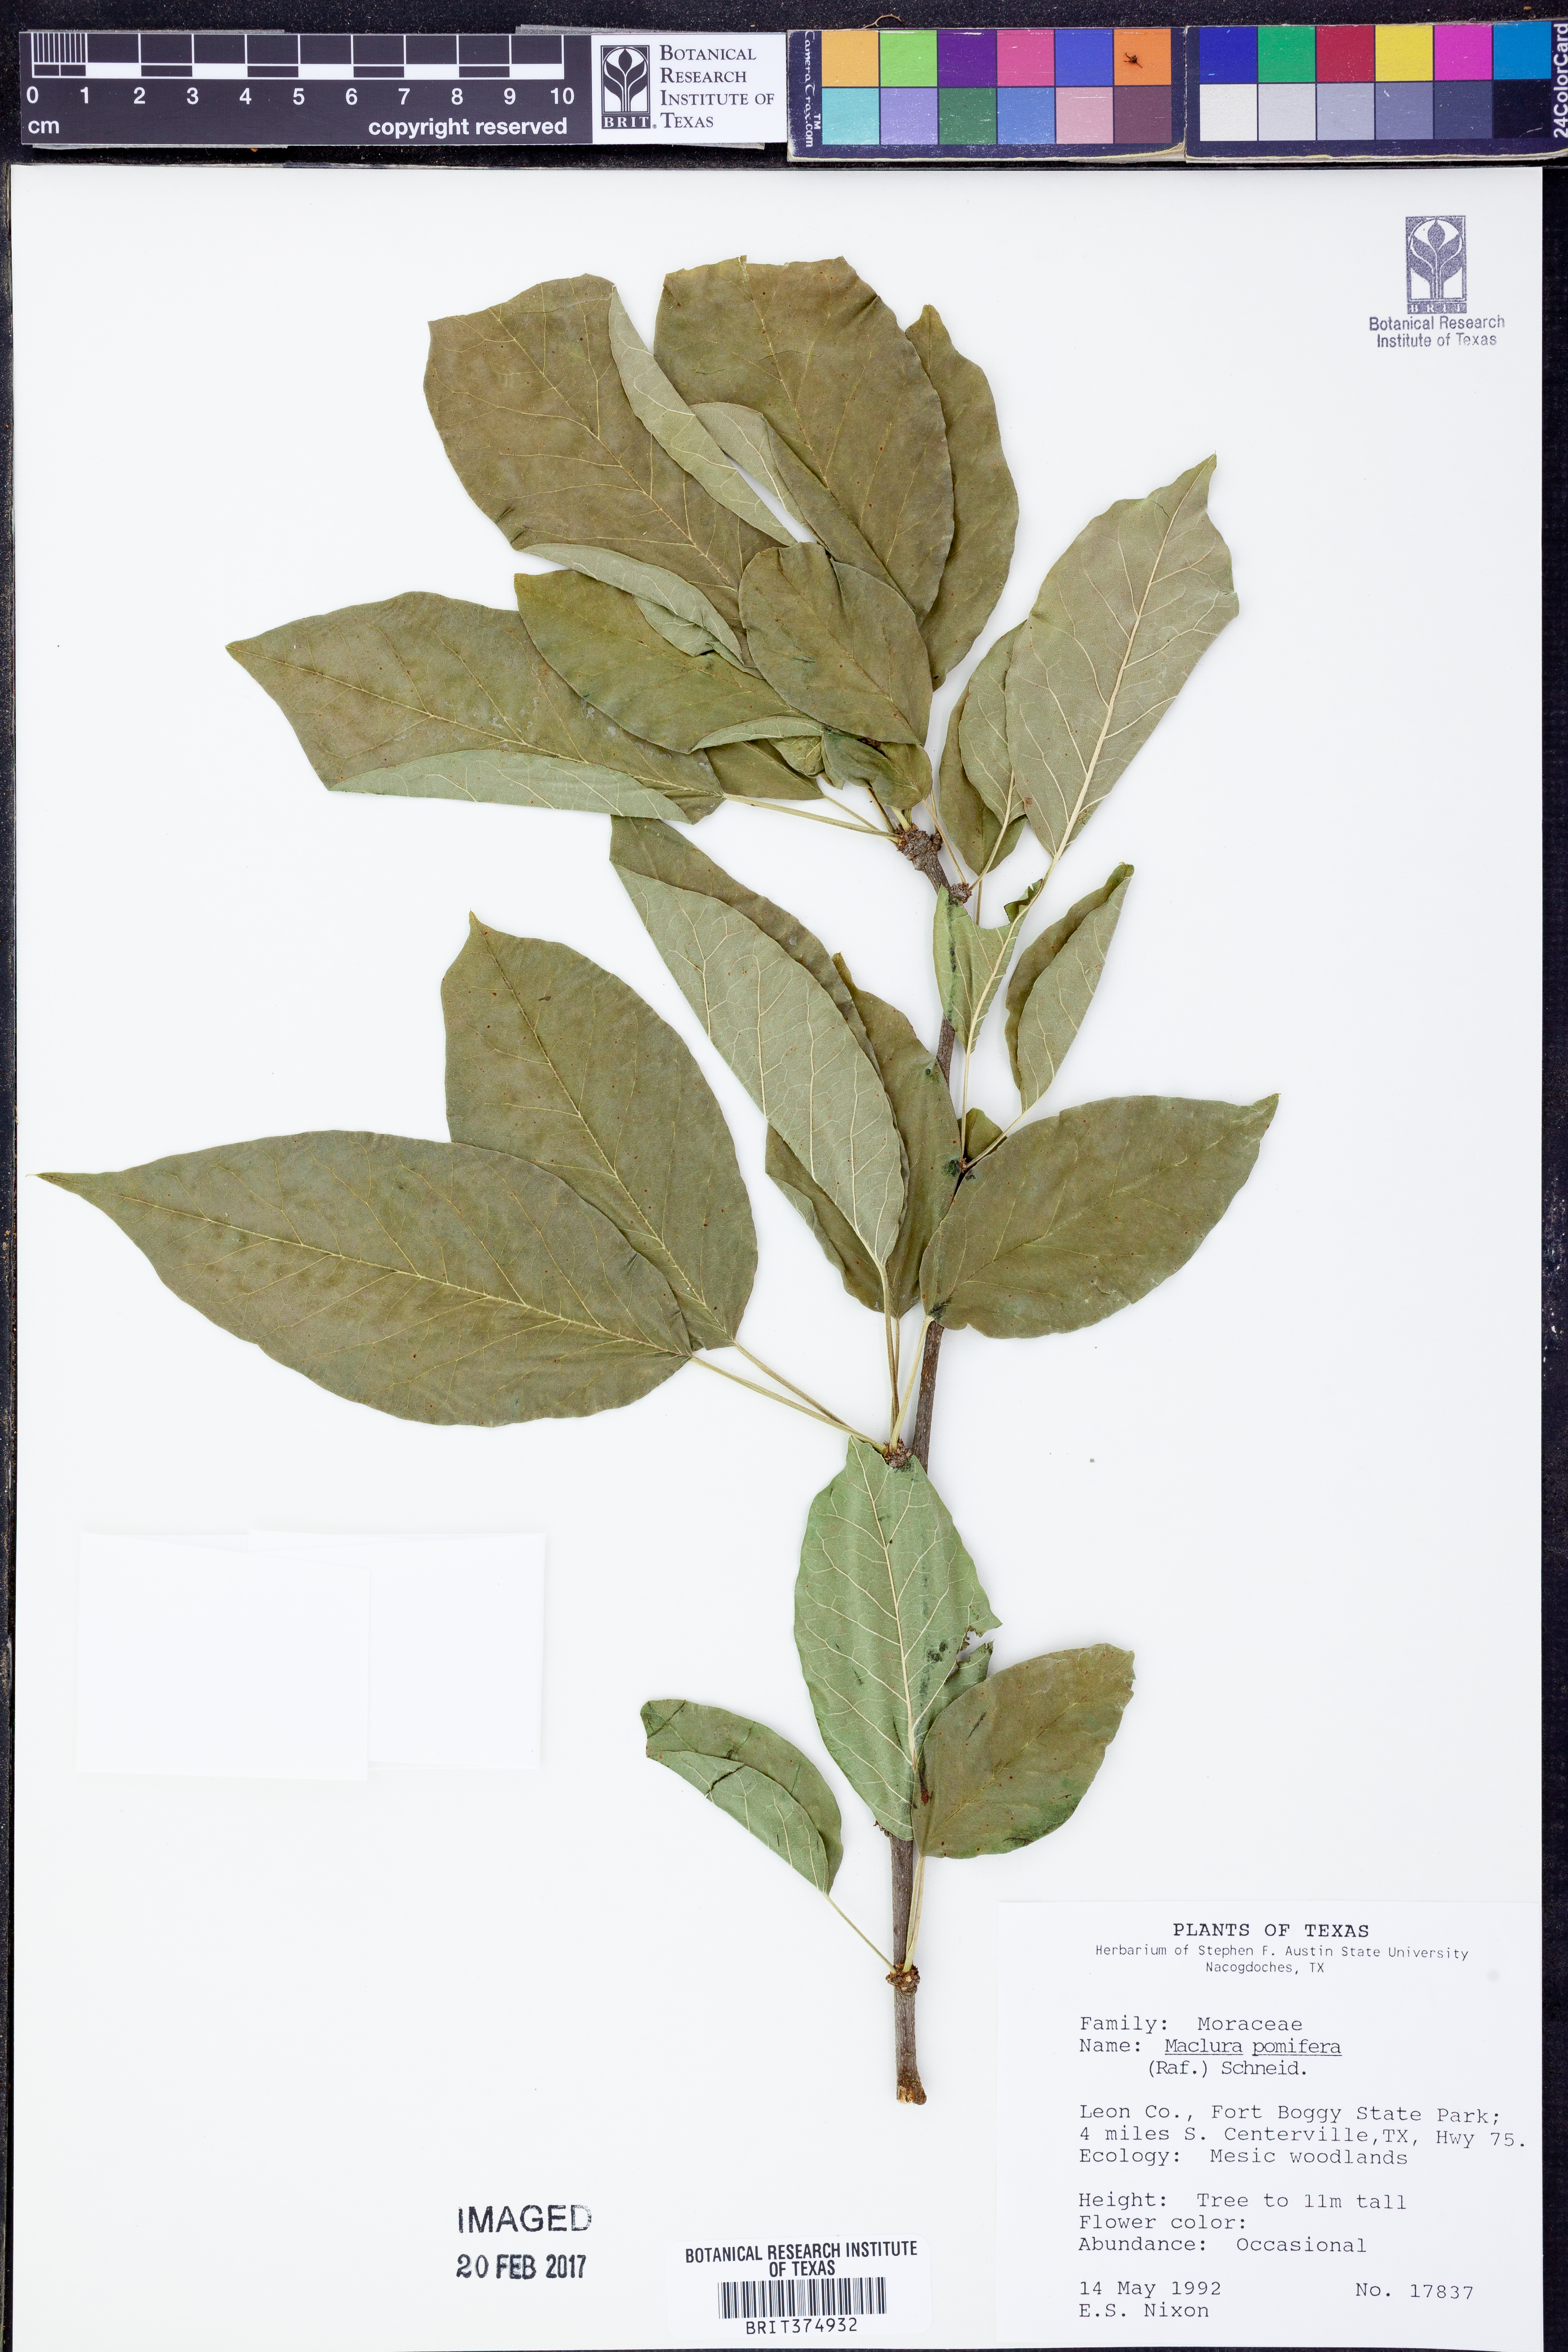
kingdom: Plantae
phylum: Tracheophyta
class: Magnoliopsida
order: Rosales
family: Moraceae
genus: Maclura
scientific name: Maclura pomifera
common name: Osage-orange
